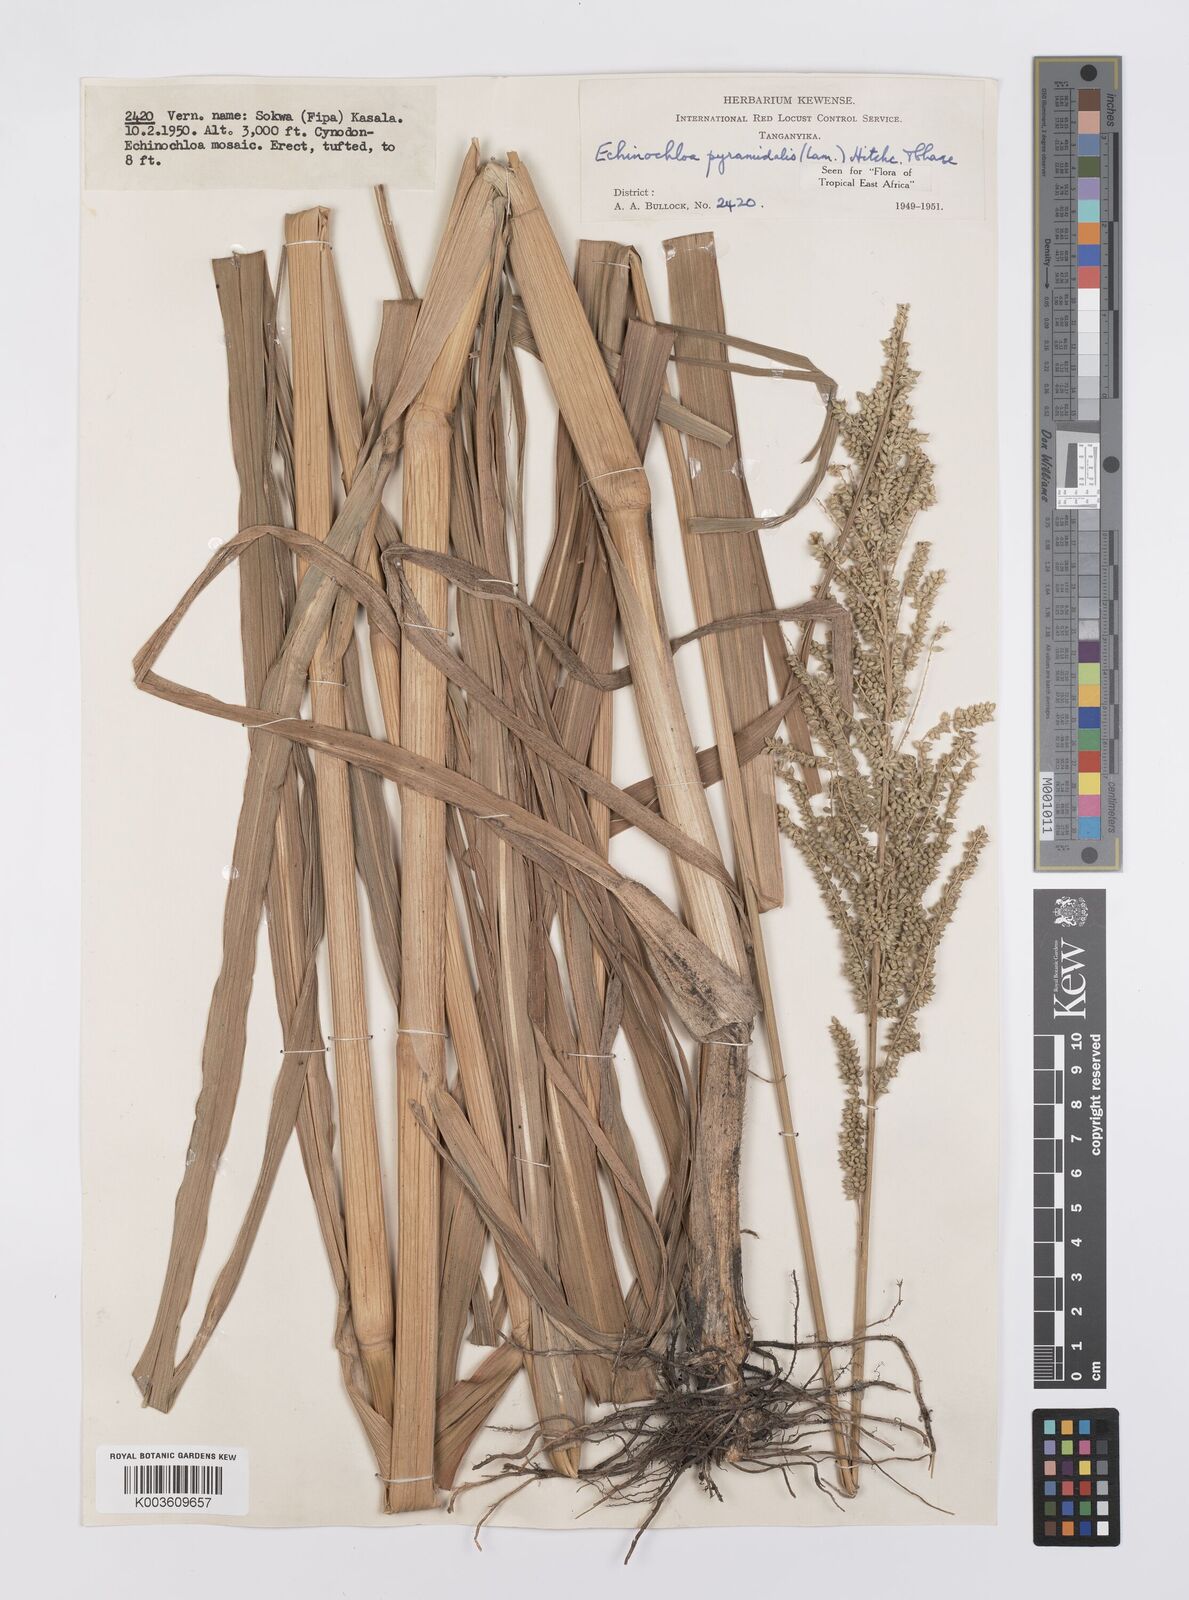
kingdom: Plantae
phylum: Tracheophyta
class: Liliopsida
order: Poales
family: Poaceae
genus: Echinochloa
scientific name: Echinochloa pyramidalis
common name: Antelope grass
